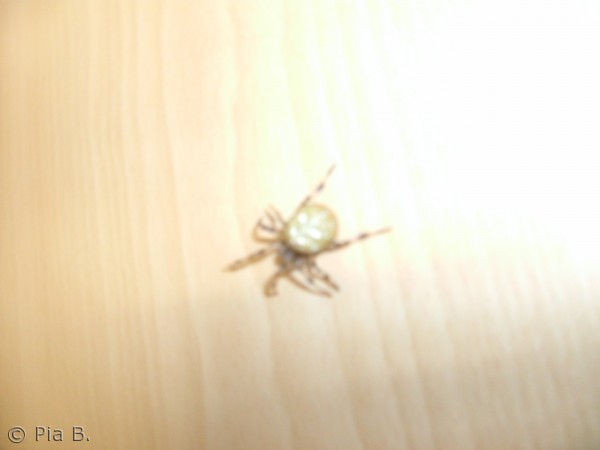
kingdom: Animalia
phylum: Arthropoda
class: Arachnida
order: Araneae
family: Araneidae
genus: Araneus
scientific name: Araneus quadratus
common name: Kvadratedderkop
